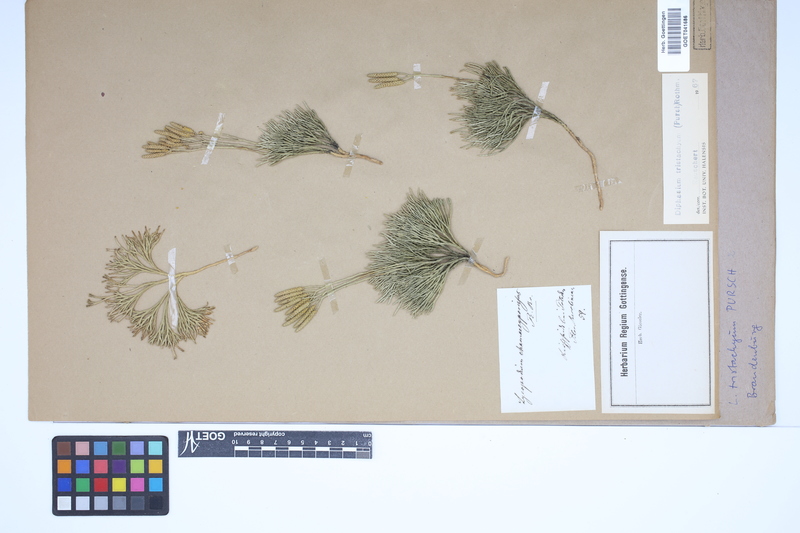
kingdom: Plantae
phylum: Tracheophyta
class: Lycopodiopsida
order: Lycopodiales
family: Lycopodiaceae
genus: Diphasiastrum
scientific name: Diphasiastrum tristachyum
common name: Blue ground-cedar
